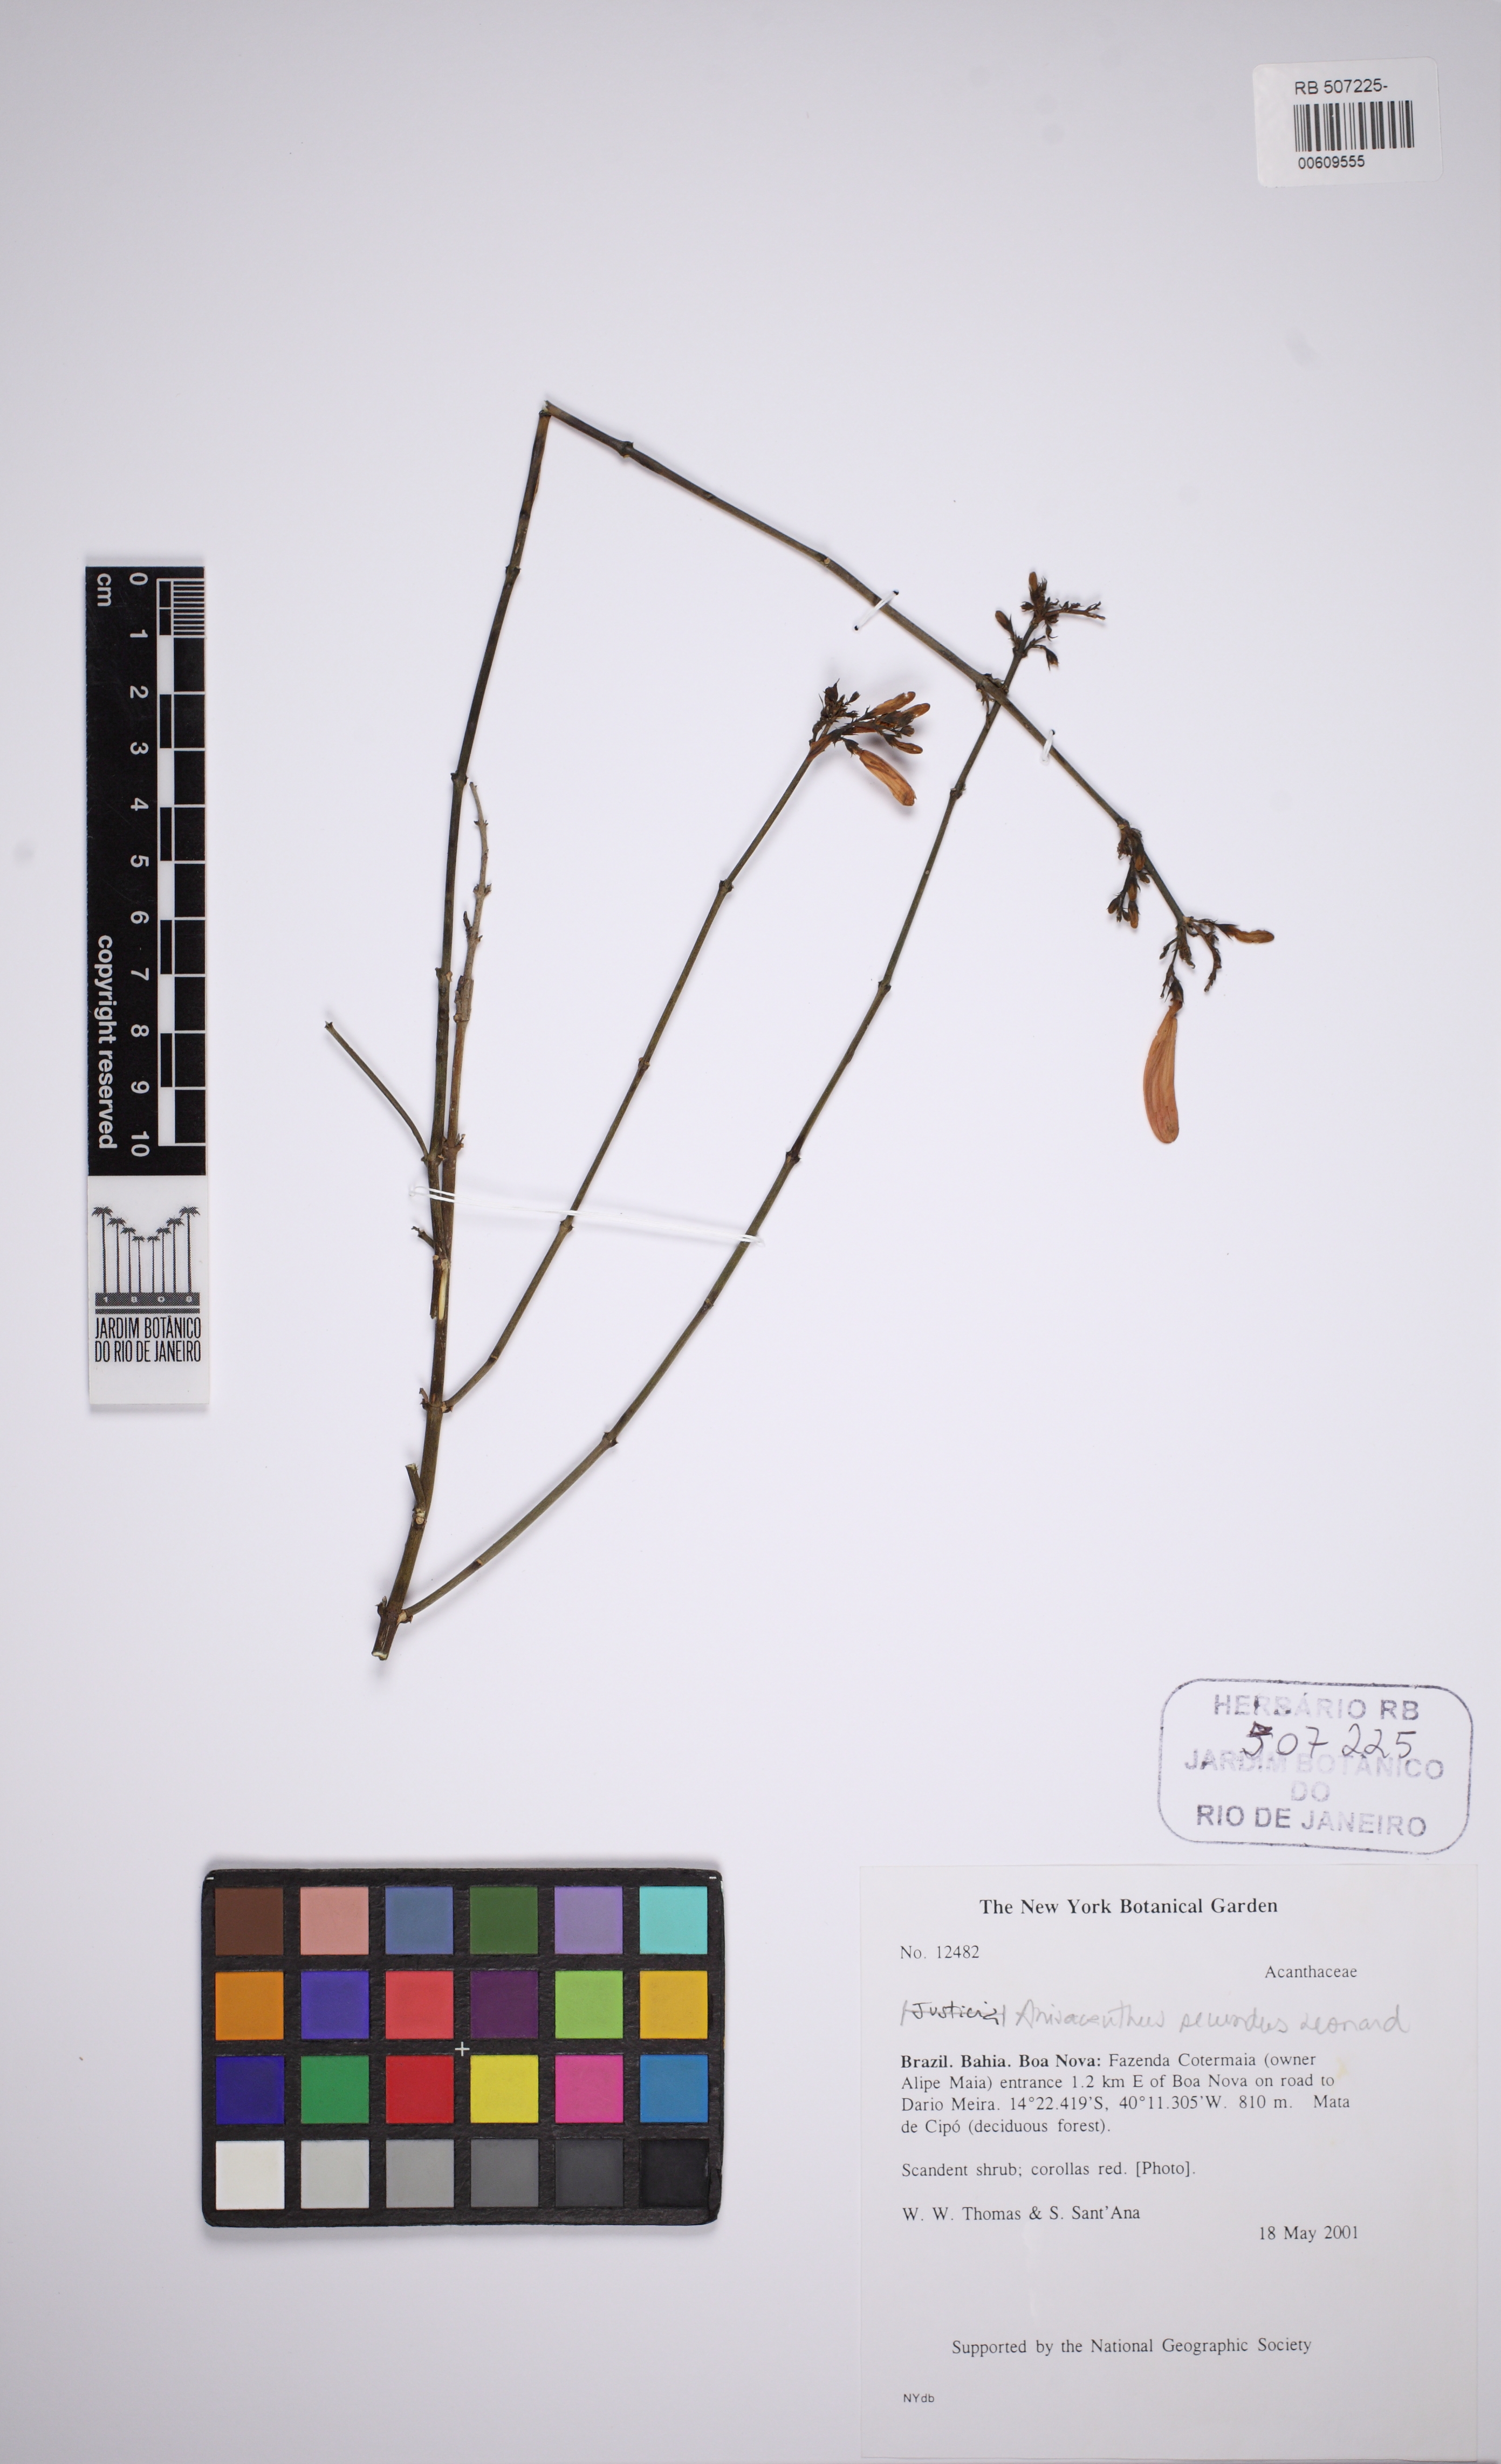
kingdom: Plantae
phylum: Tracheophyta
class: Magnoliopsida
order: Lamiales
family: Acanthaceae
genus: Thyrsacanthus
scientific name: Thyrsacanthus secundus
